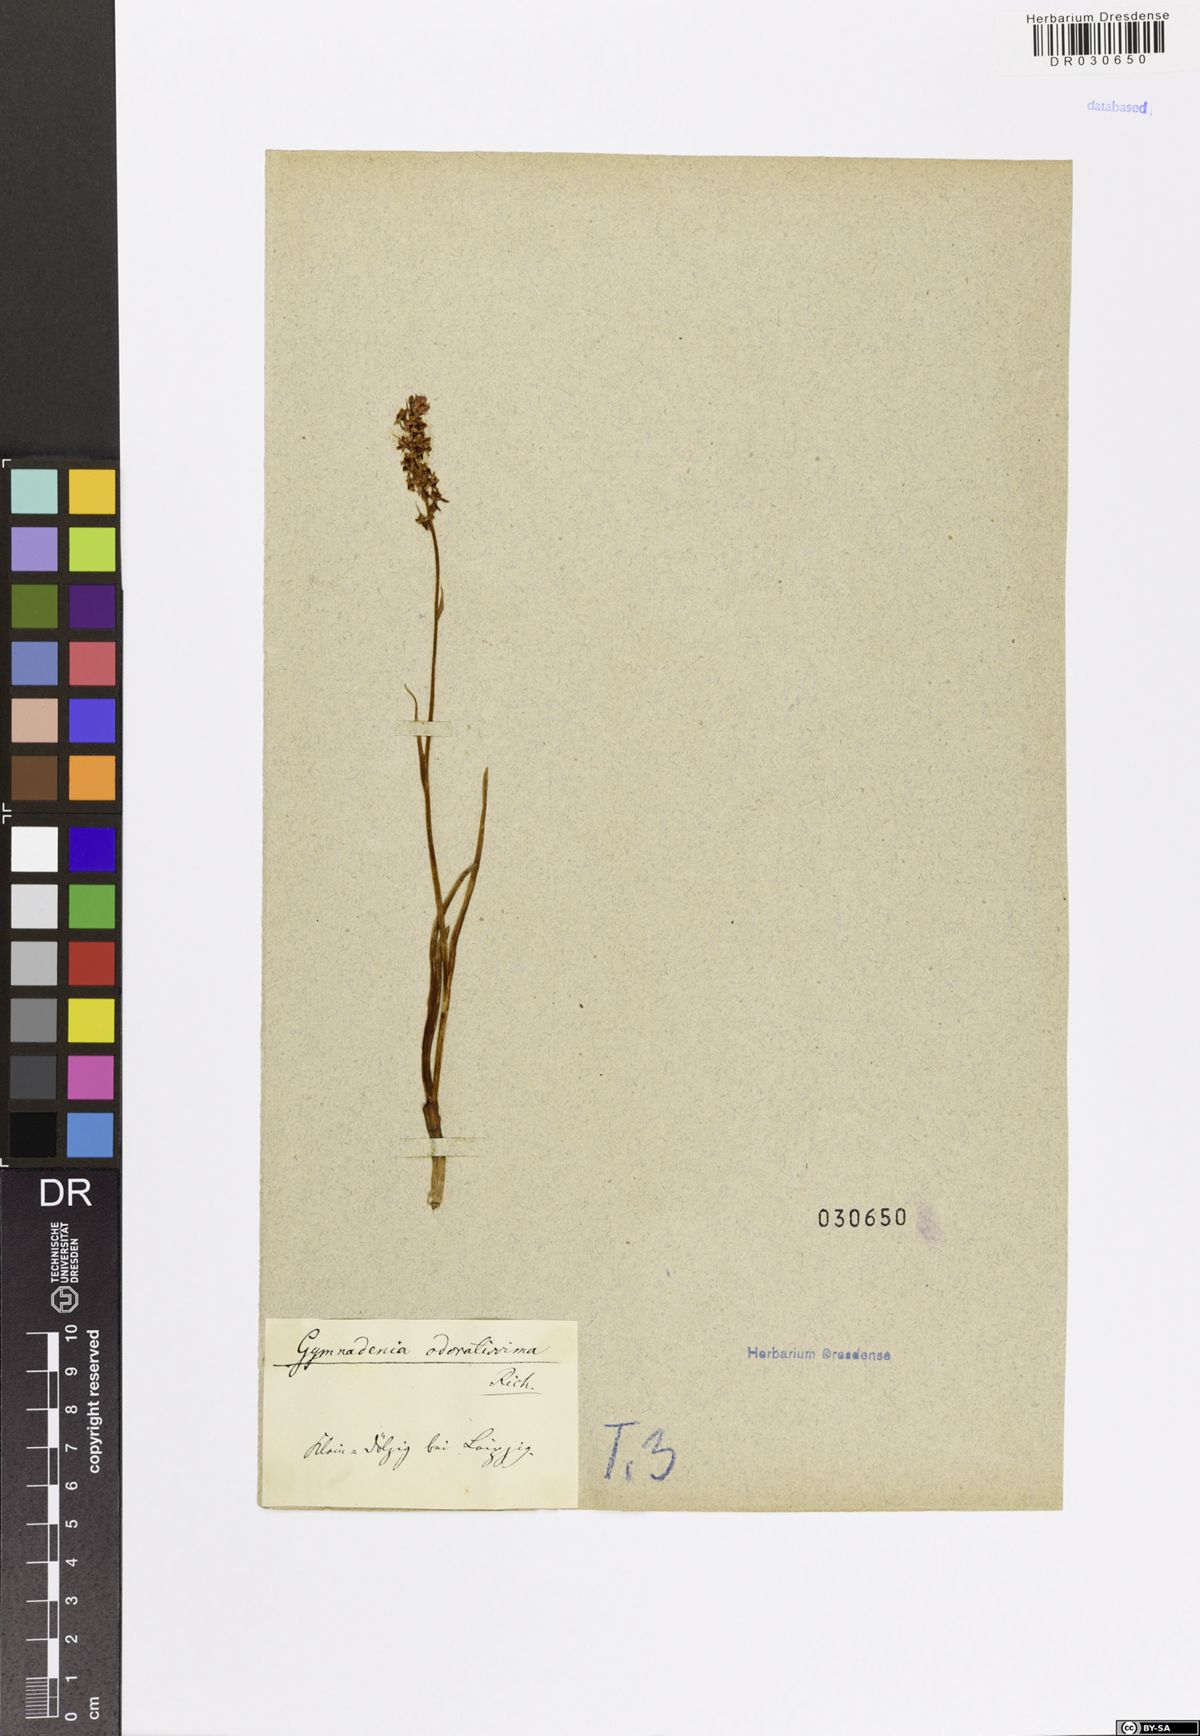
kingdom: Plantae
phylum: Tracheophyta
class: Liliopsida
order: Asparagales
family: Orchidaceae
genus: Gymnadenia
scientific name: Gymnadenia odoratissima
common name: Scented gymnadenia
